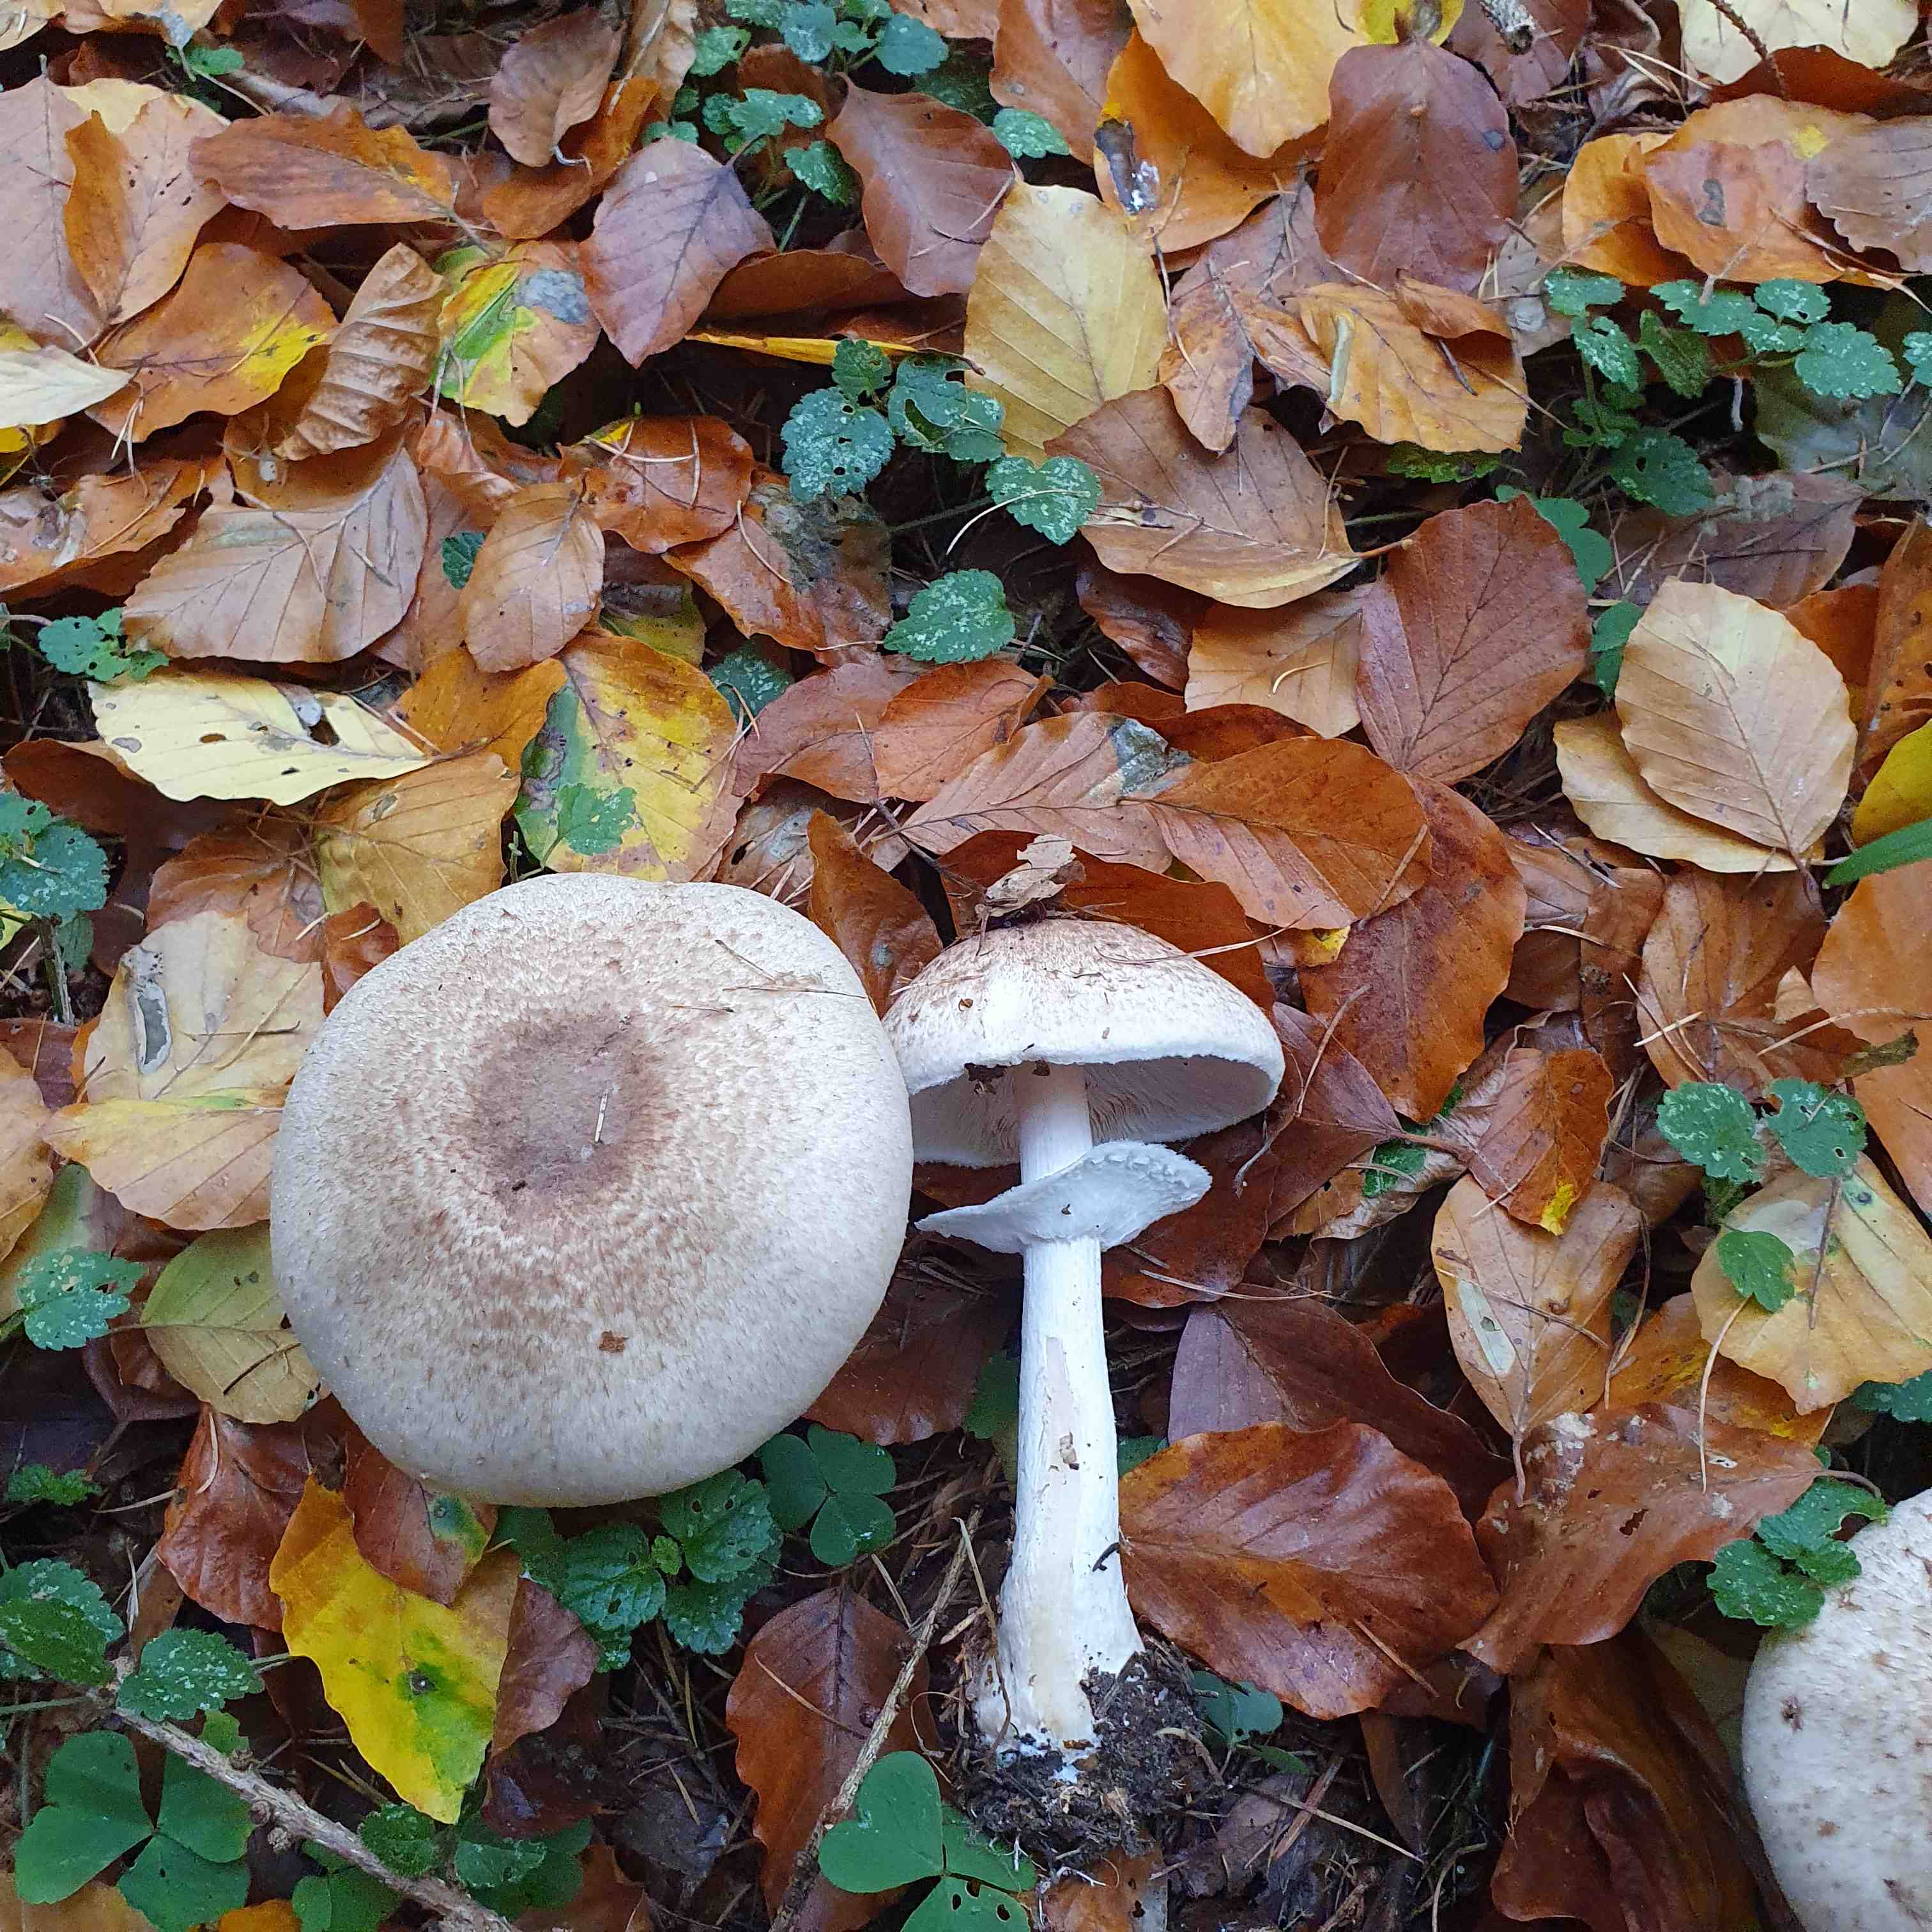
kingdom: Fungi
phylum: Basidiomycota
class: Agaricomycetes
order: Agaricales
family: Agaricaceae
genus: Agaricus
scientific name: Agaricus impudicus
